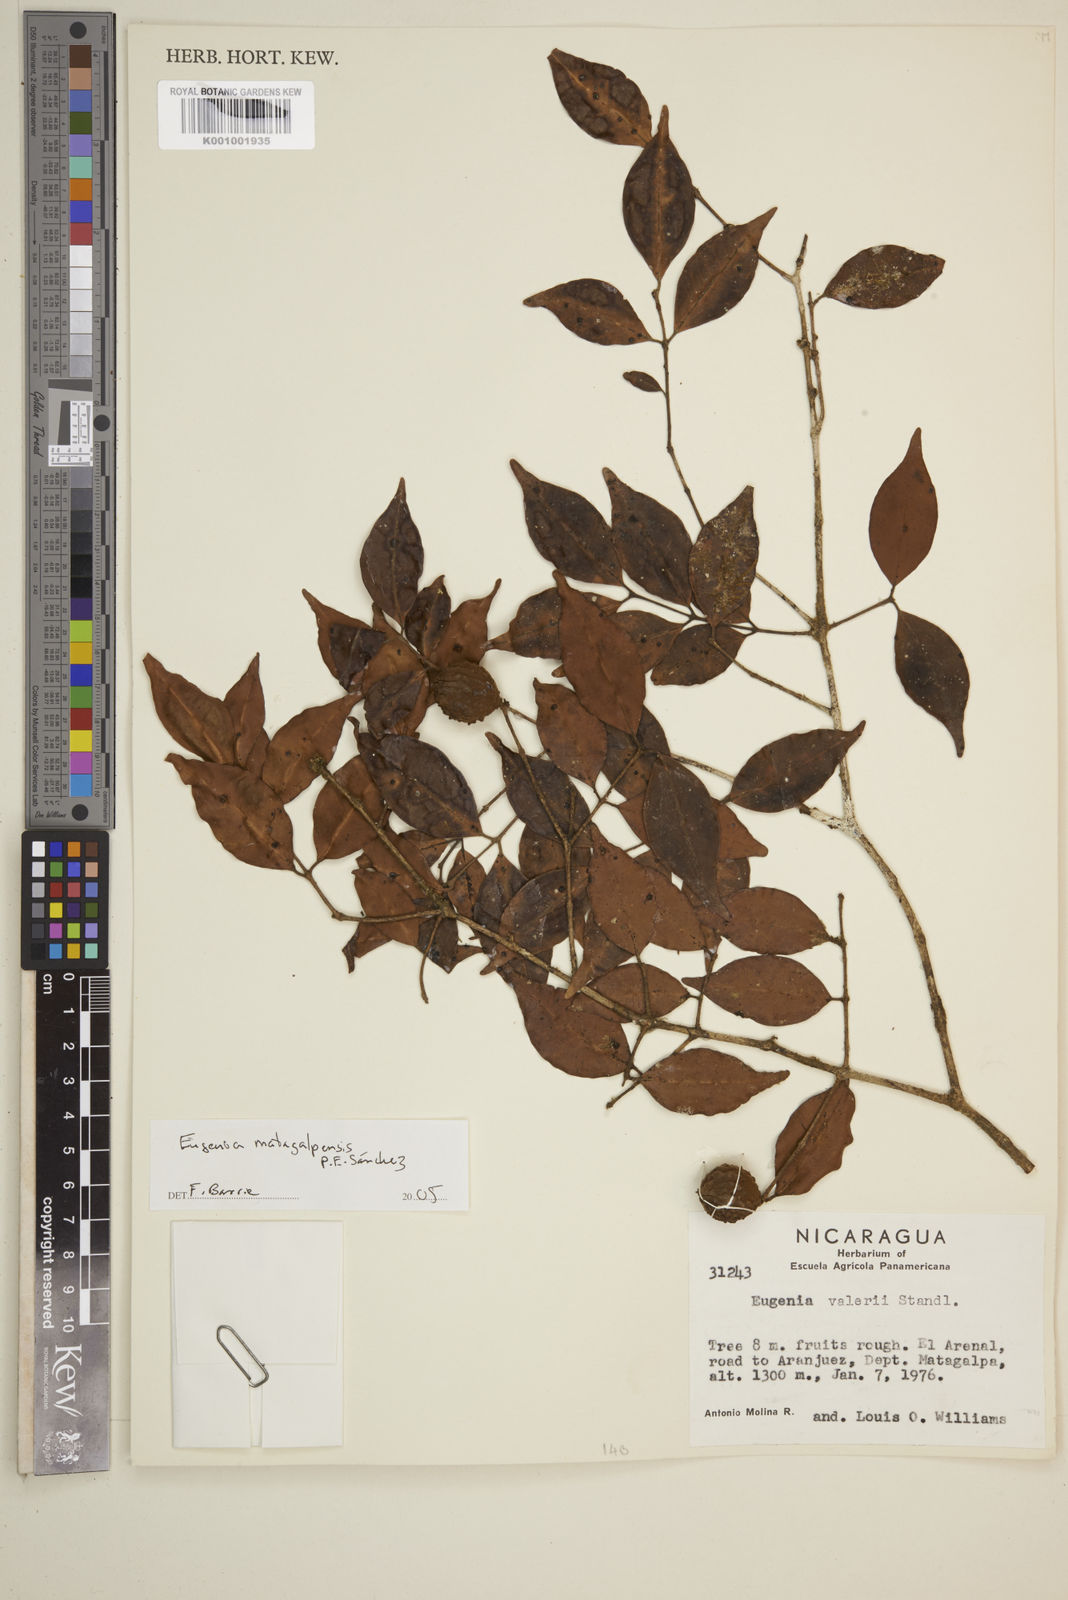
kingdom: Plantae
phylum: Tracheophyta
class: Magnoliopsida
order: Myrtales
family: Myrtaceae
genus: Eugenia
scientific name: Eugenia
